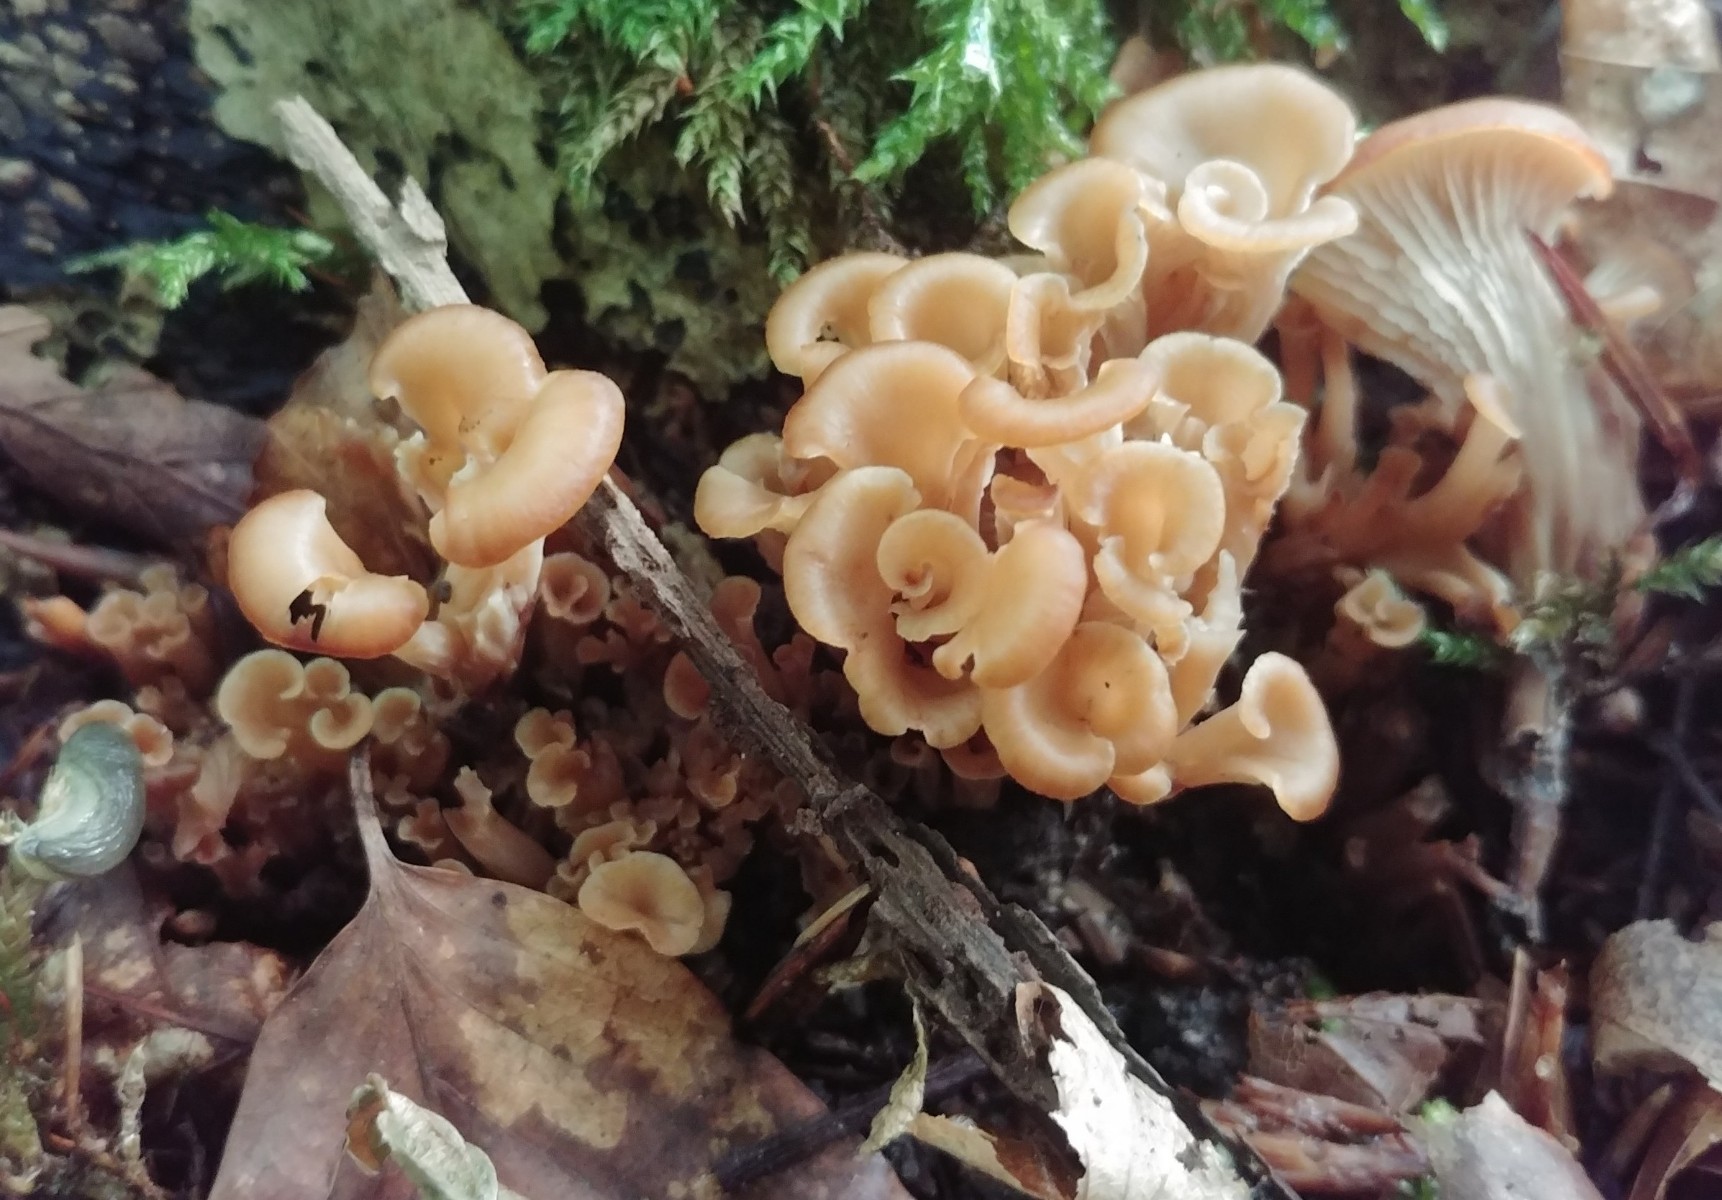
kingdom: Fungi
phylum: Basidiomycota
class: Agaricomycetes
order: Russulales
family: Auriscalpiaceae
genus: Lentinellus
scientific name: Lentinellus cochleatus
